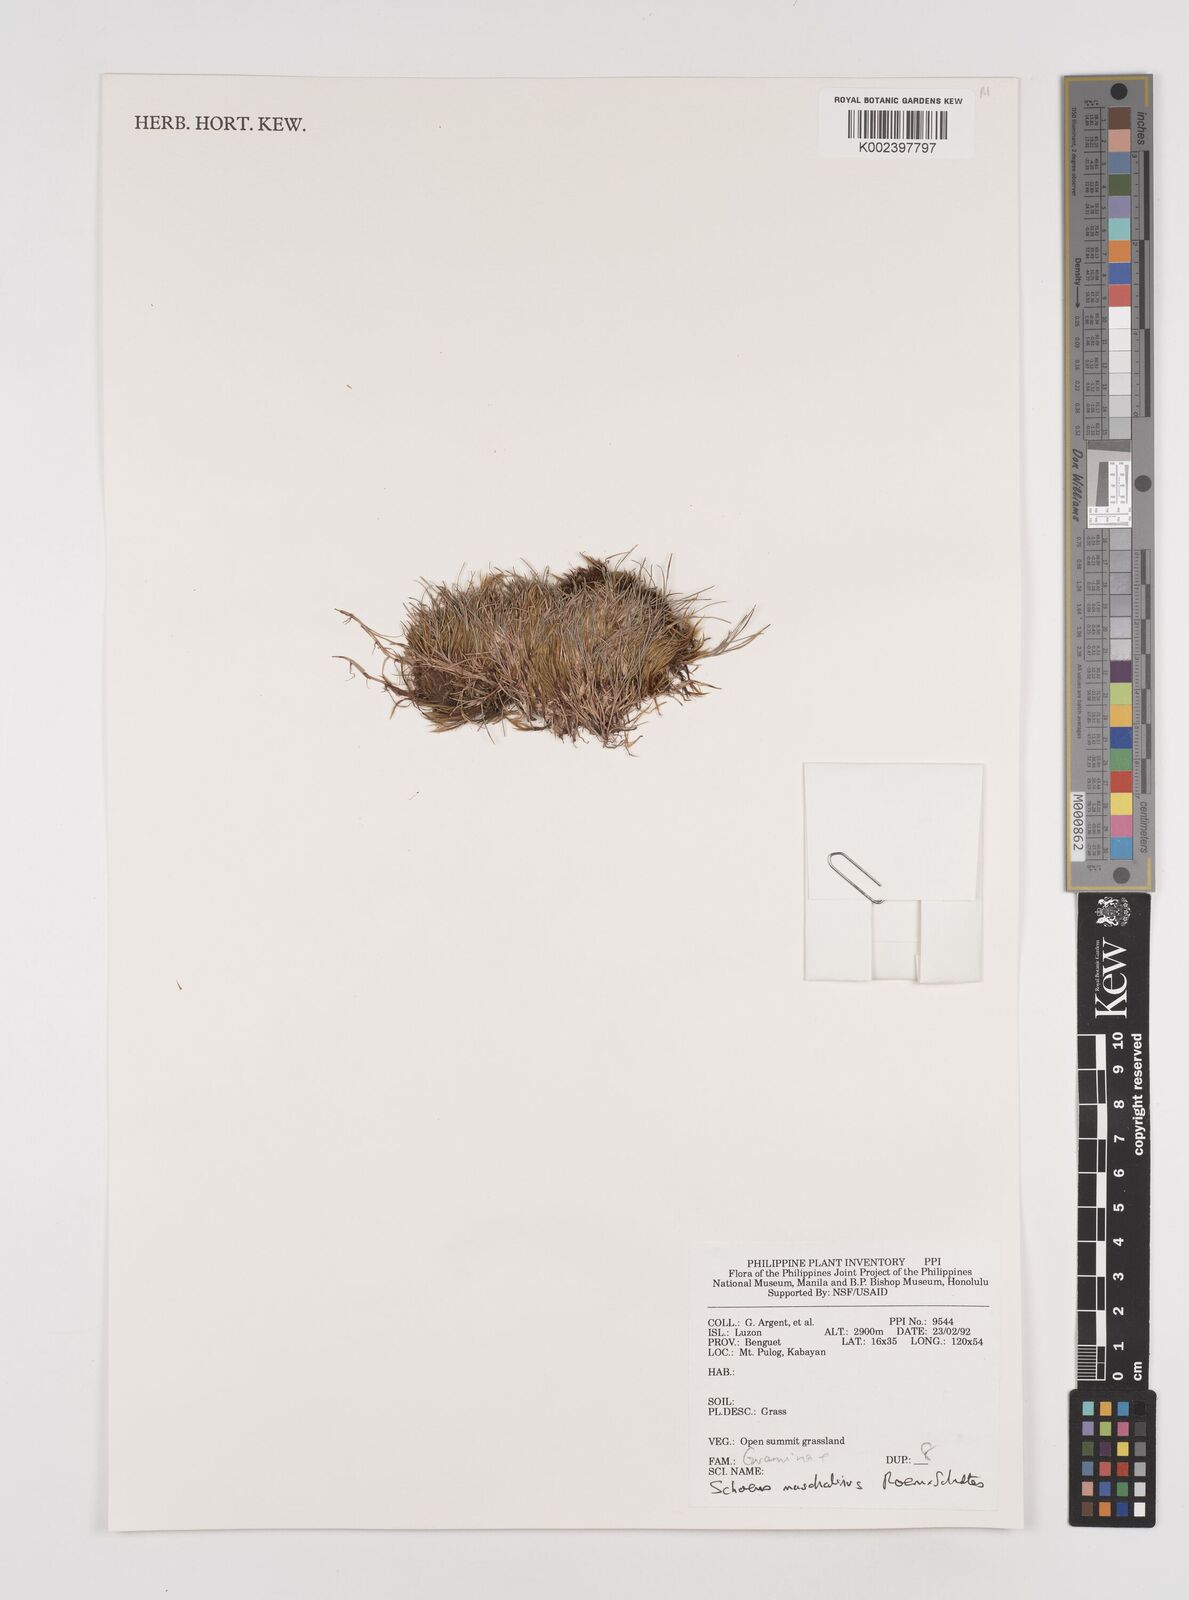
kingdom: Plantae
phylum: Tracheophyta
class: Liliopsida
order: Poales
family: Cyperaceae
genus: Schoenus
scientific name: Schoenus maschalinus
